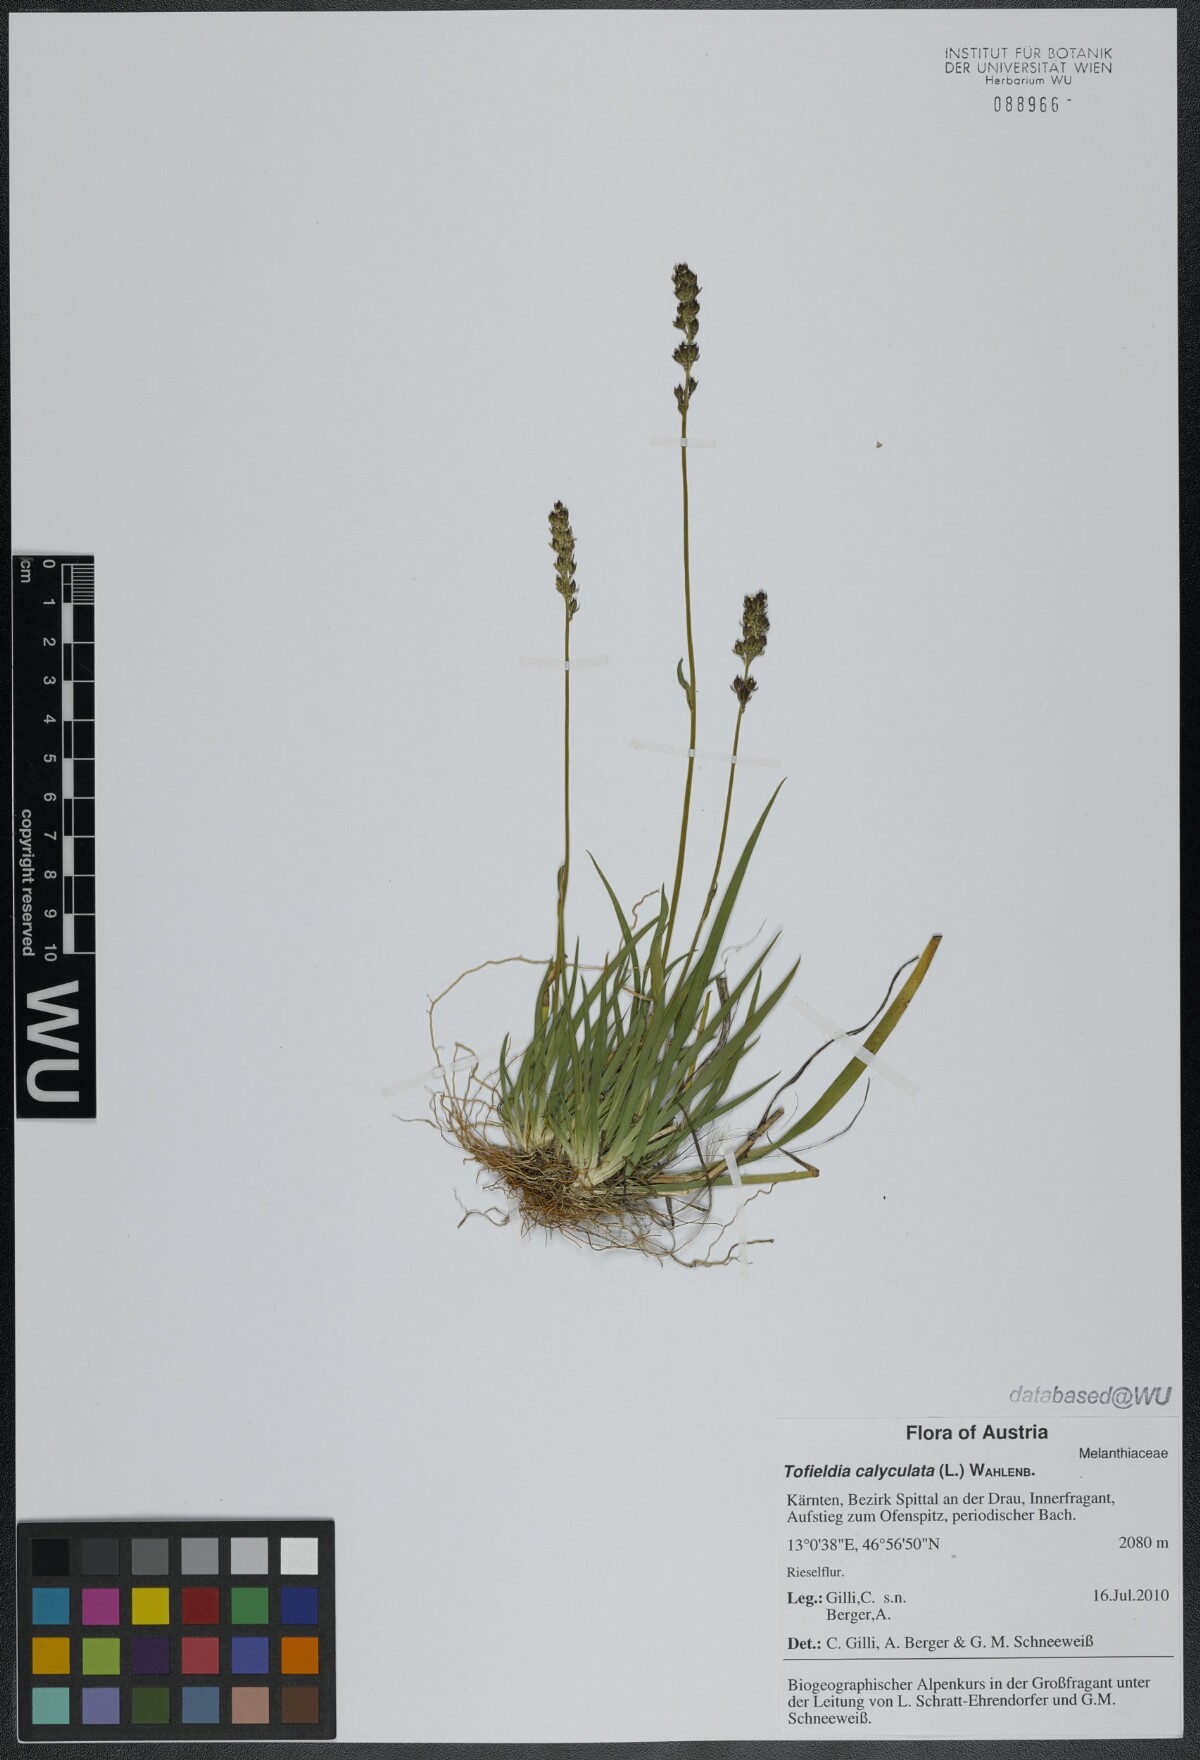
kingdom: Plantae
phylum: Tracheophyta
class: Liliopsida
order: Alismatales
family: Tofieldiaceae
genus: Tofieldia
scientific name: Tofieldia calyculata
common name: German-asphodel
